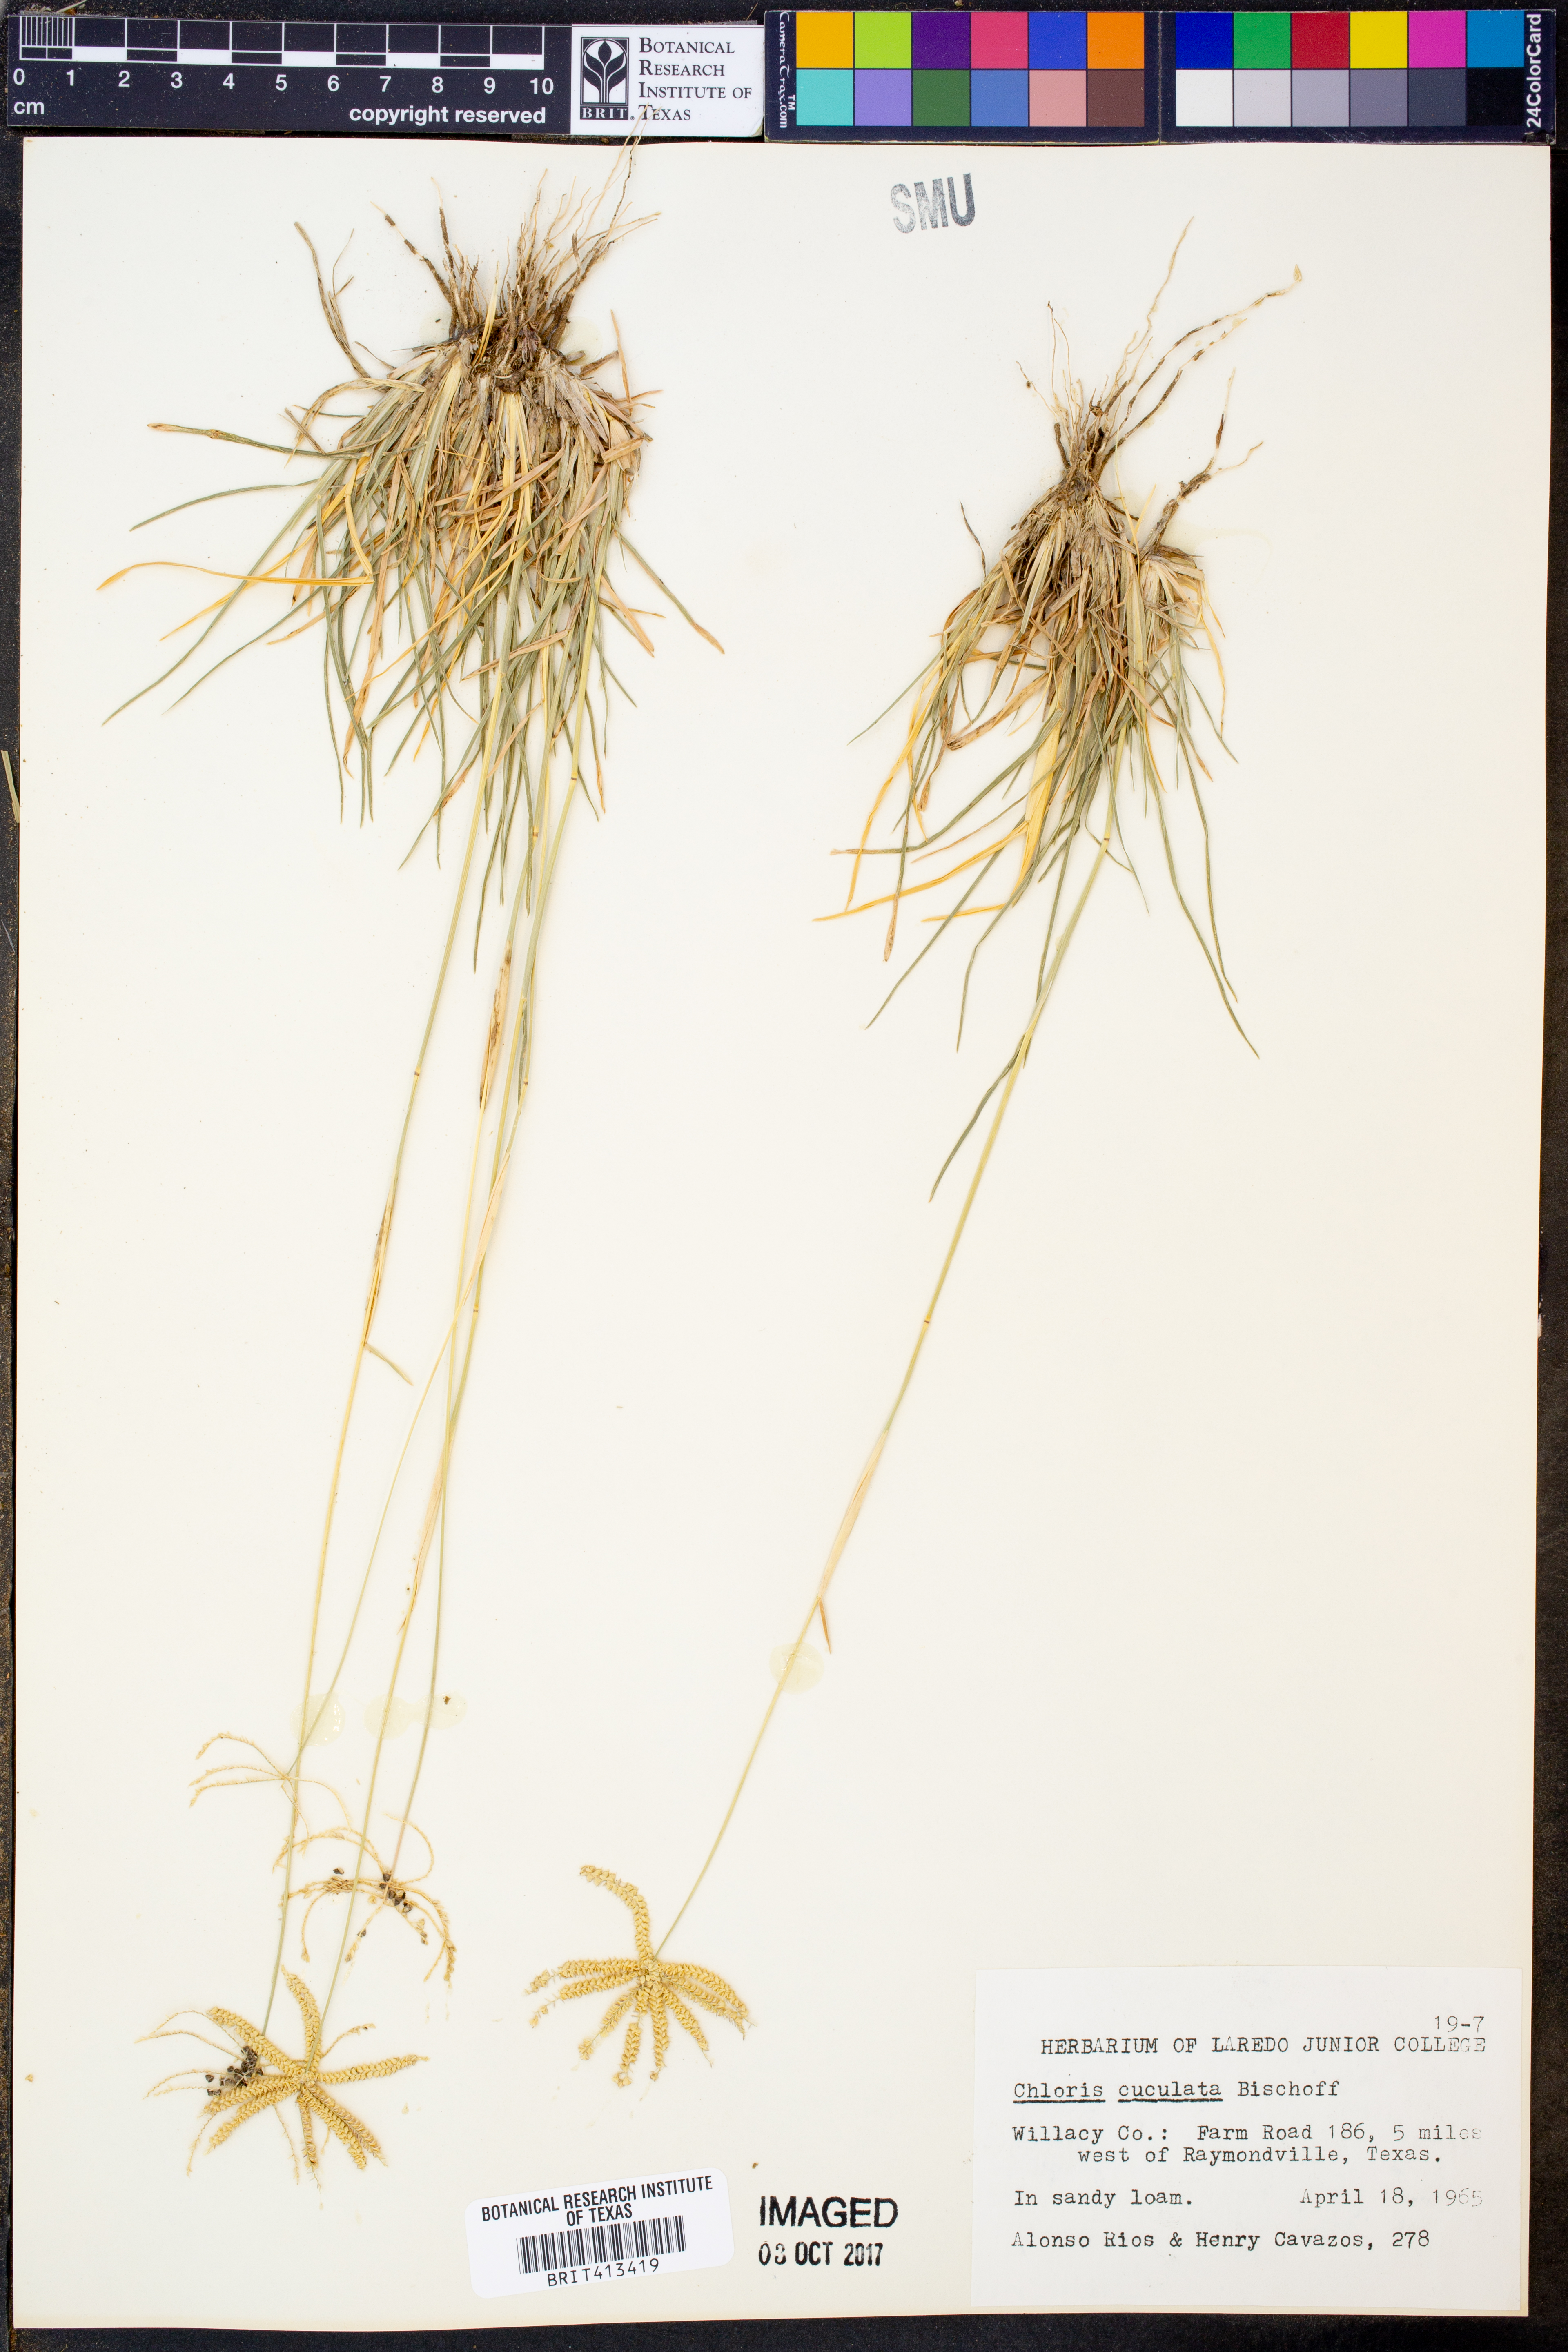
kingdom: Plantae
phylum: Tracheophyta
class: Liliopsida
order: Poales
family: Poaceae
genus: Chloris
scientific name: Chloris cucullata
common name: Hooded windmill grass
